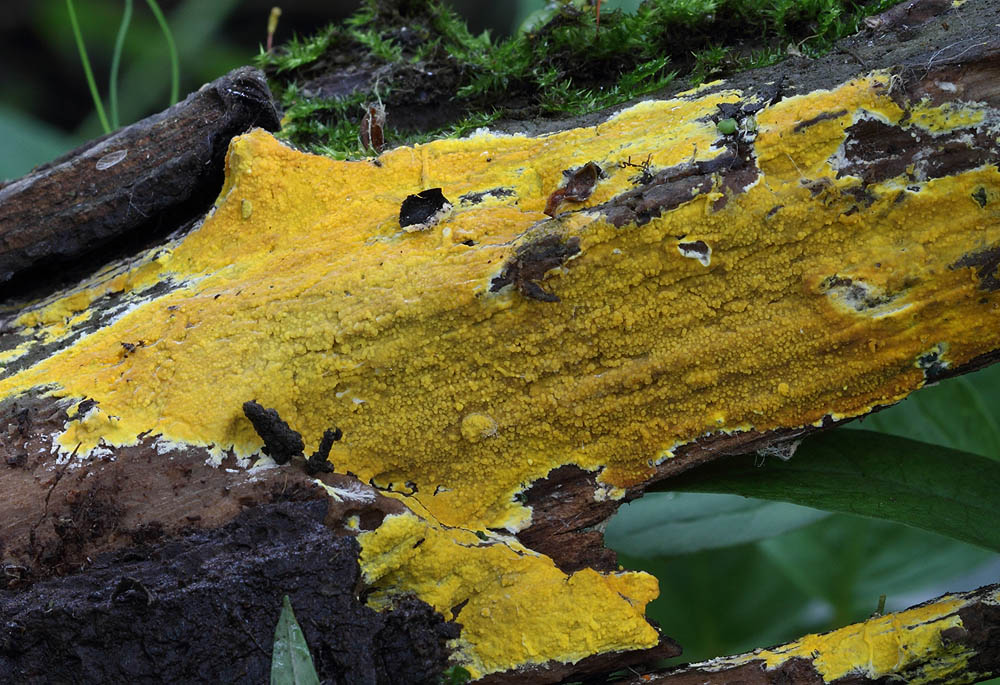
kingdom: Fungi
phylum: Basidiomycota
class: Agaricomycetes
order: Polyporales
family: Meruliaceae
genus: Phlebiodontia
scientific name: Phlebiodontia subochracea
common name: svovl-åresvamp
